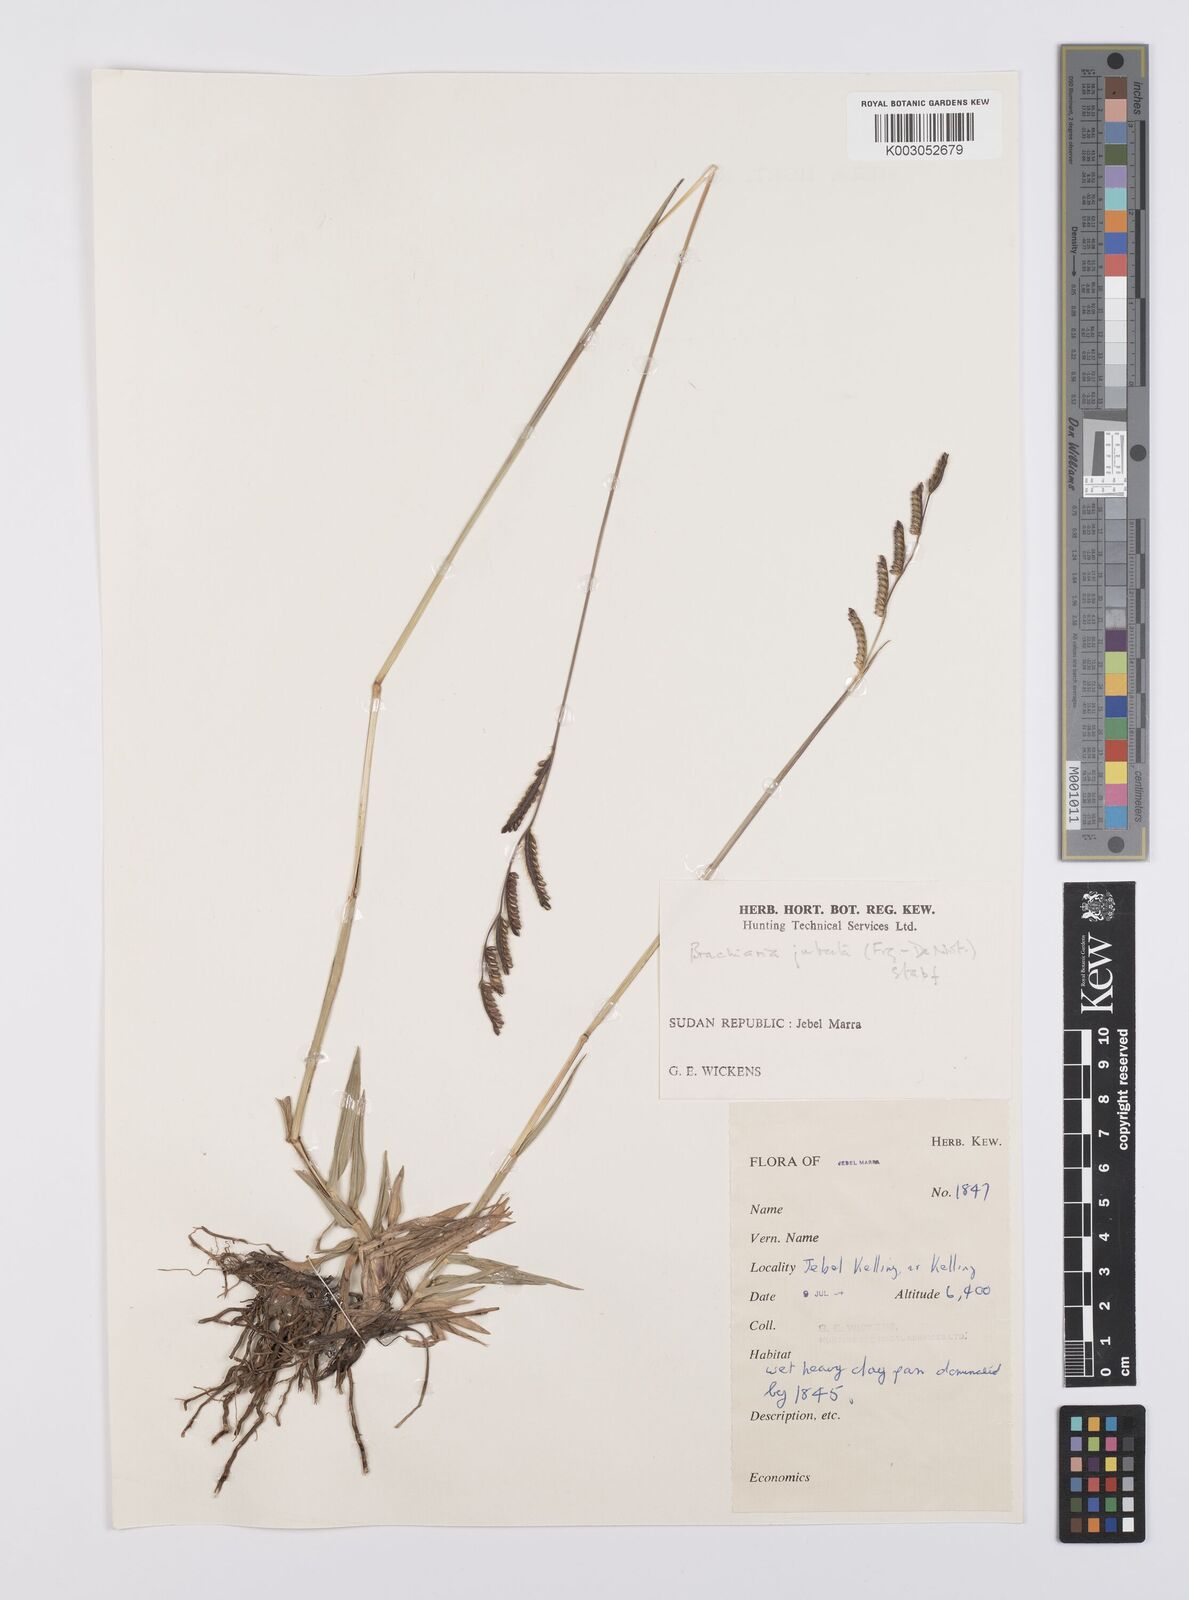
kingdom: Plantae
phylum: Tracheophyta
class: Liliopsida
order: Poales
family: Poaceae
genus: Urochloa
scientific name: Urochloa jubata
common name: Buffalograss
